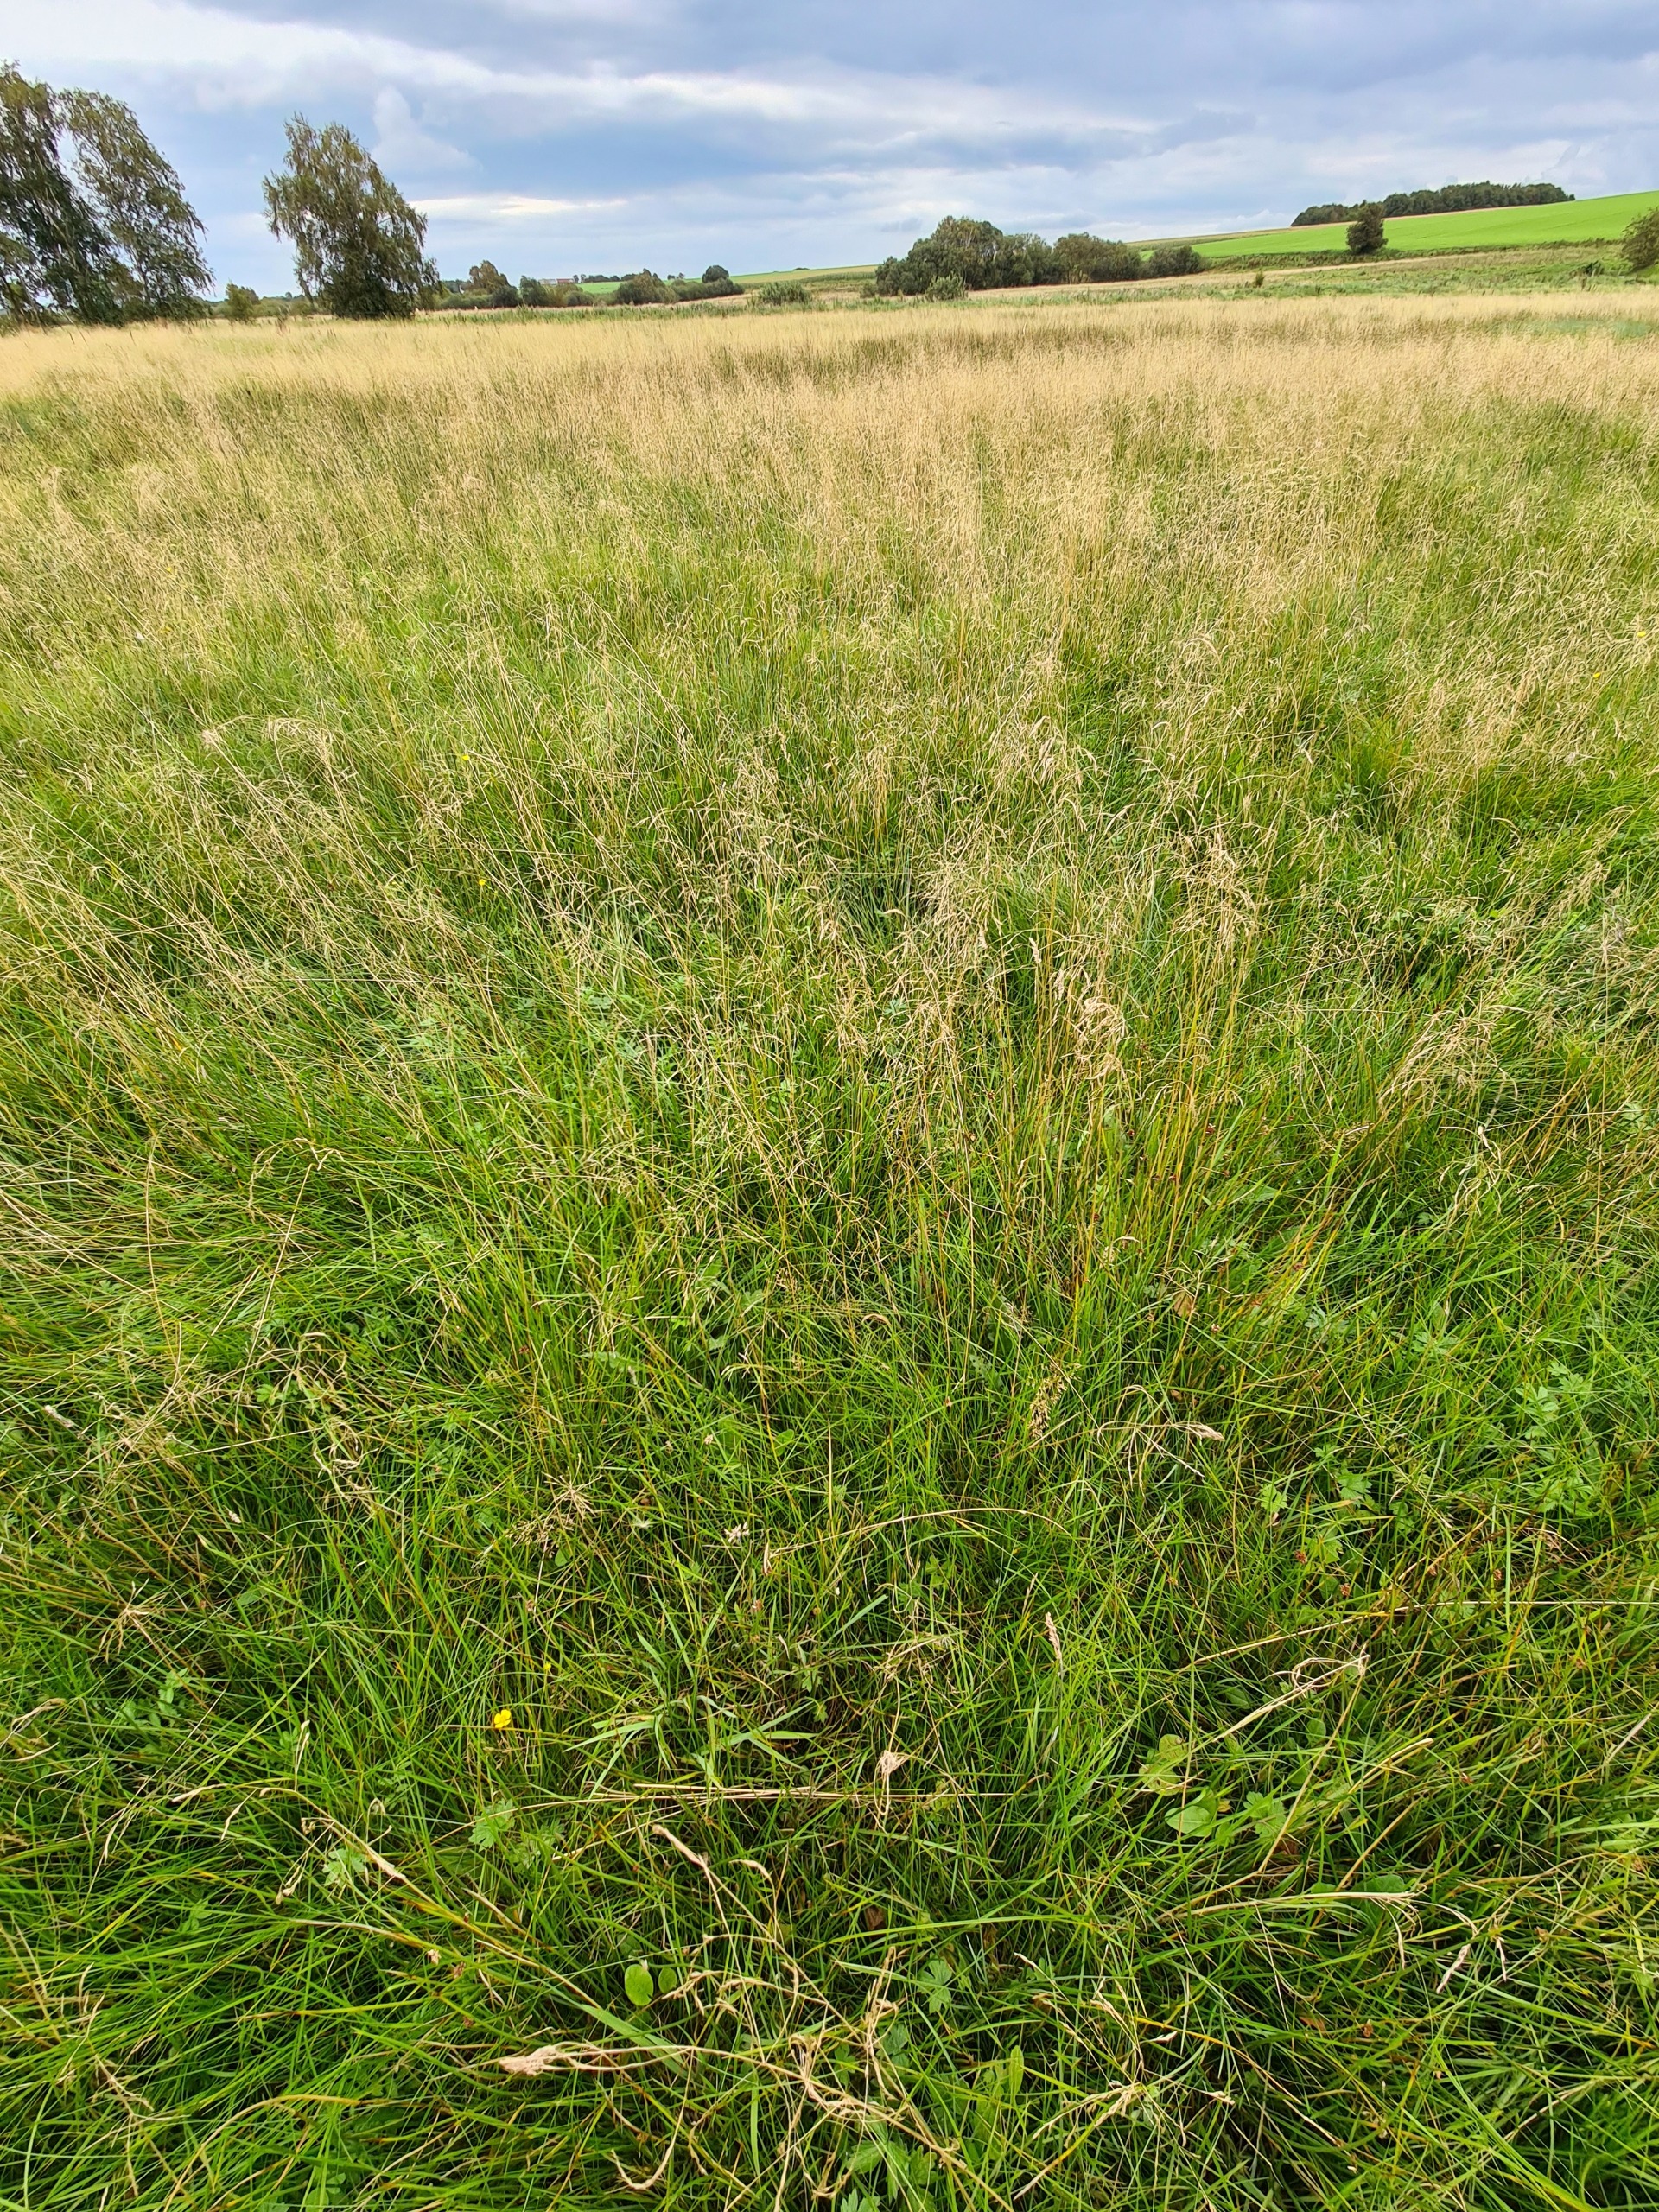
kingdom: Plantae
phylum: Tracheophyta
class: Liliopsida
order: Poales
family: Poaceae
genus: Deschampsia
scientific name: Deschampsia cespitosa
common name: Mose-bunke
